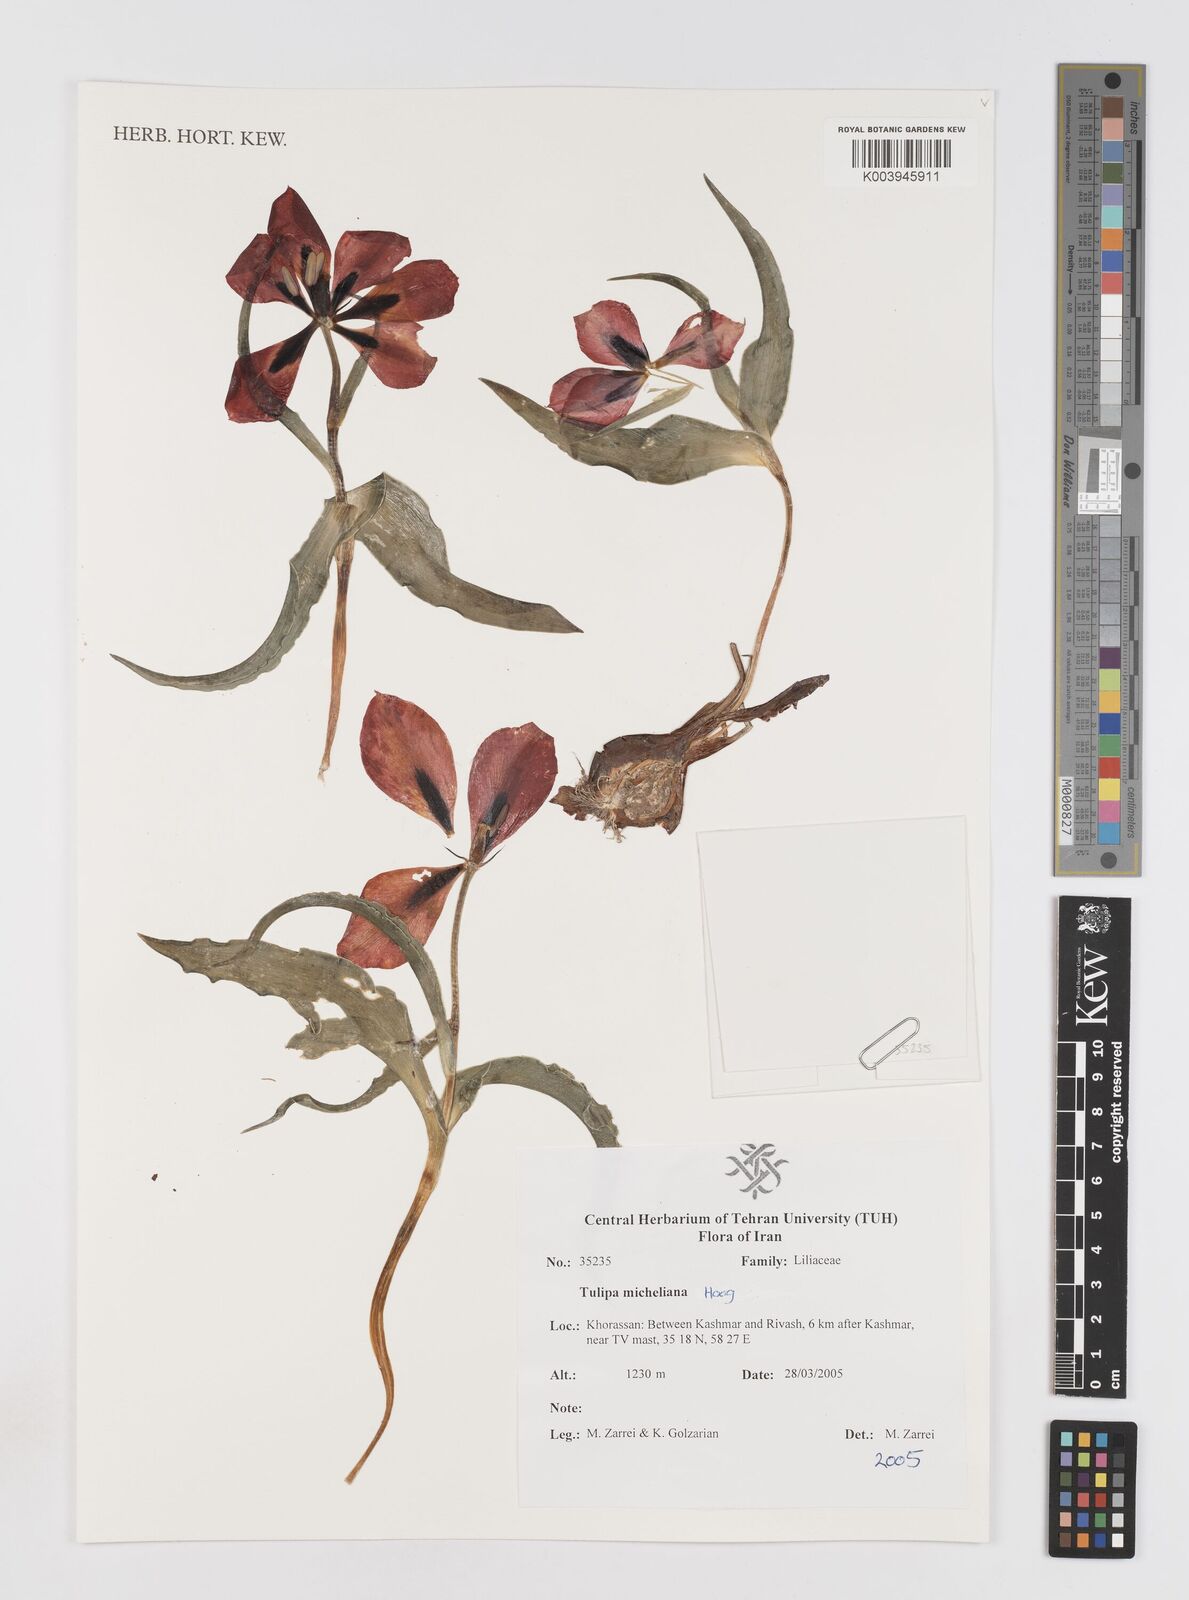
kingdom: Plantae
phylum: Tracheophyta
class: Liliopsida
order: Liliales
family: Liliaceae
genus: Tulipa
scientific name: Tulipa undulatifolia
